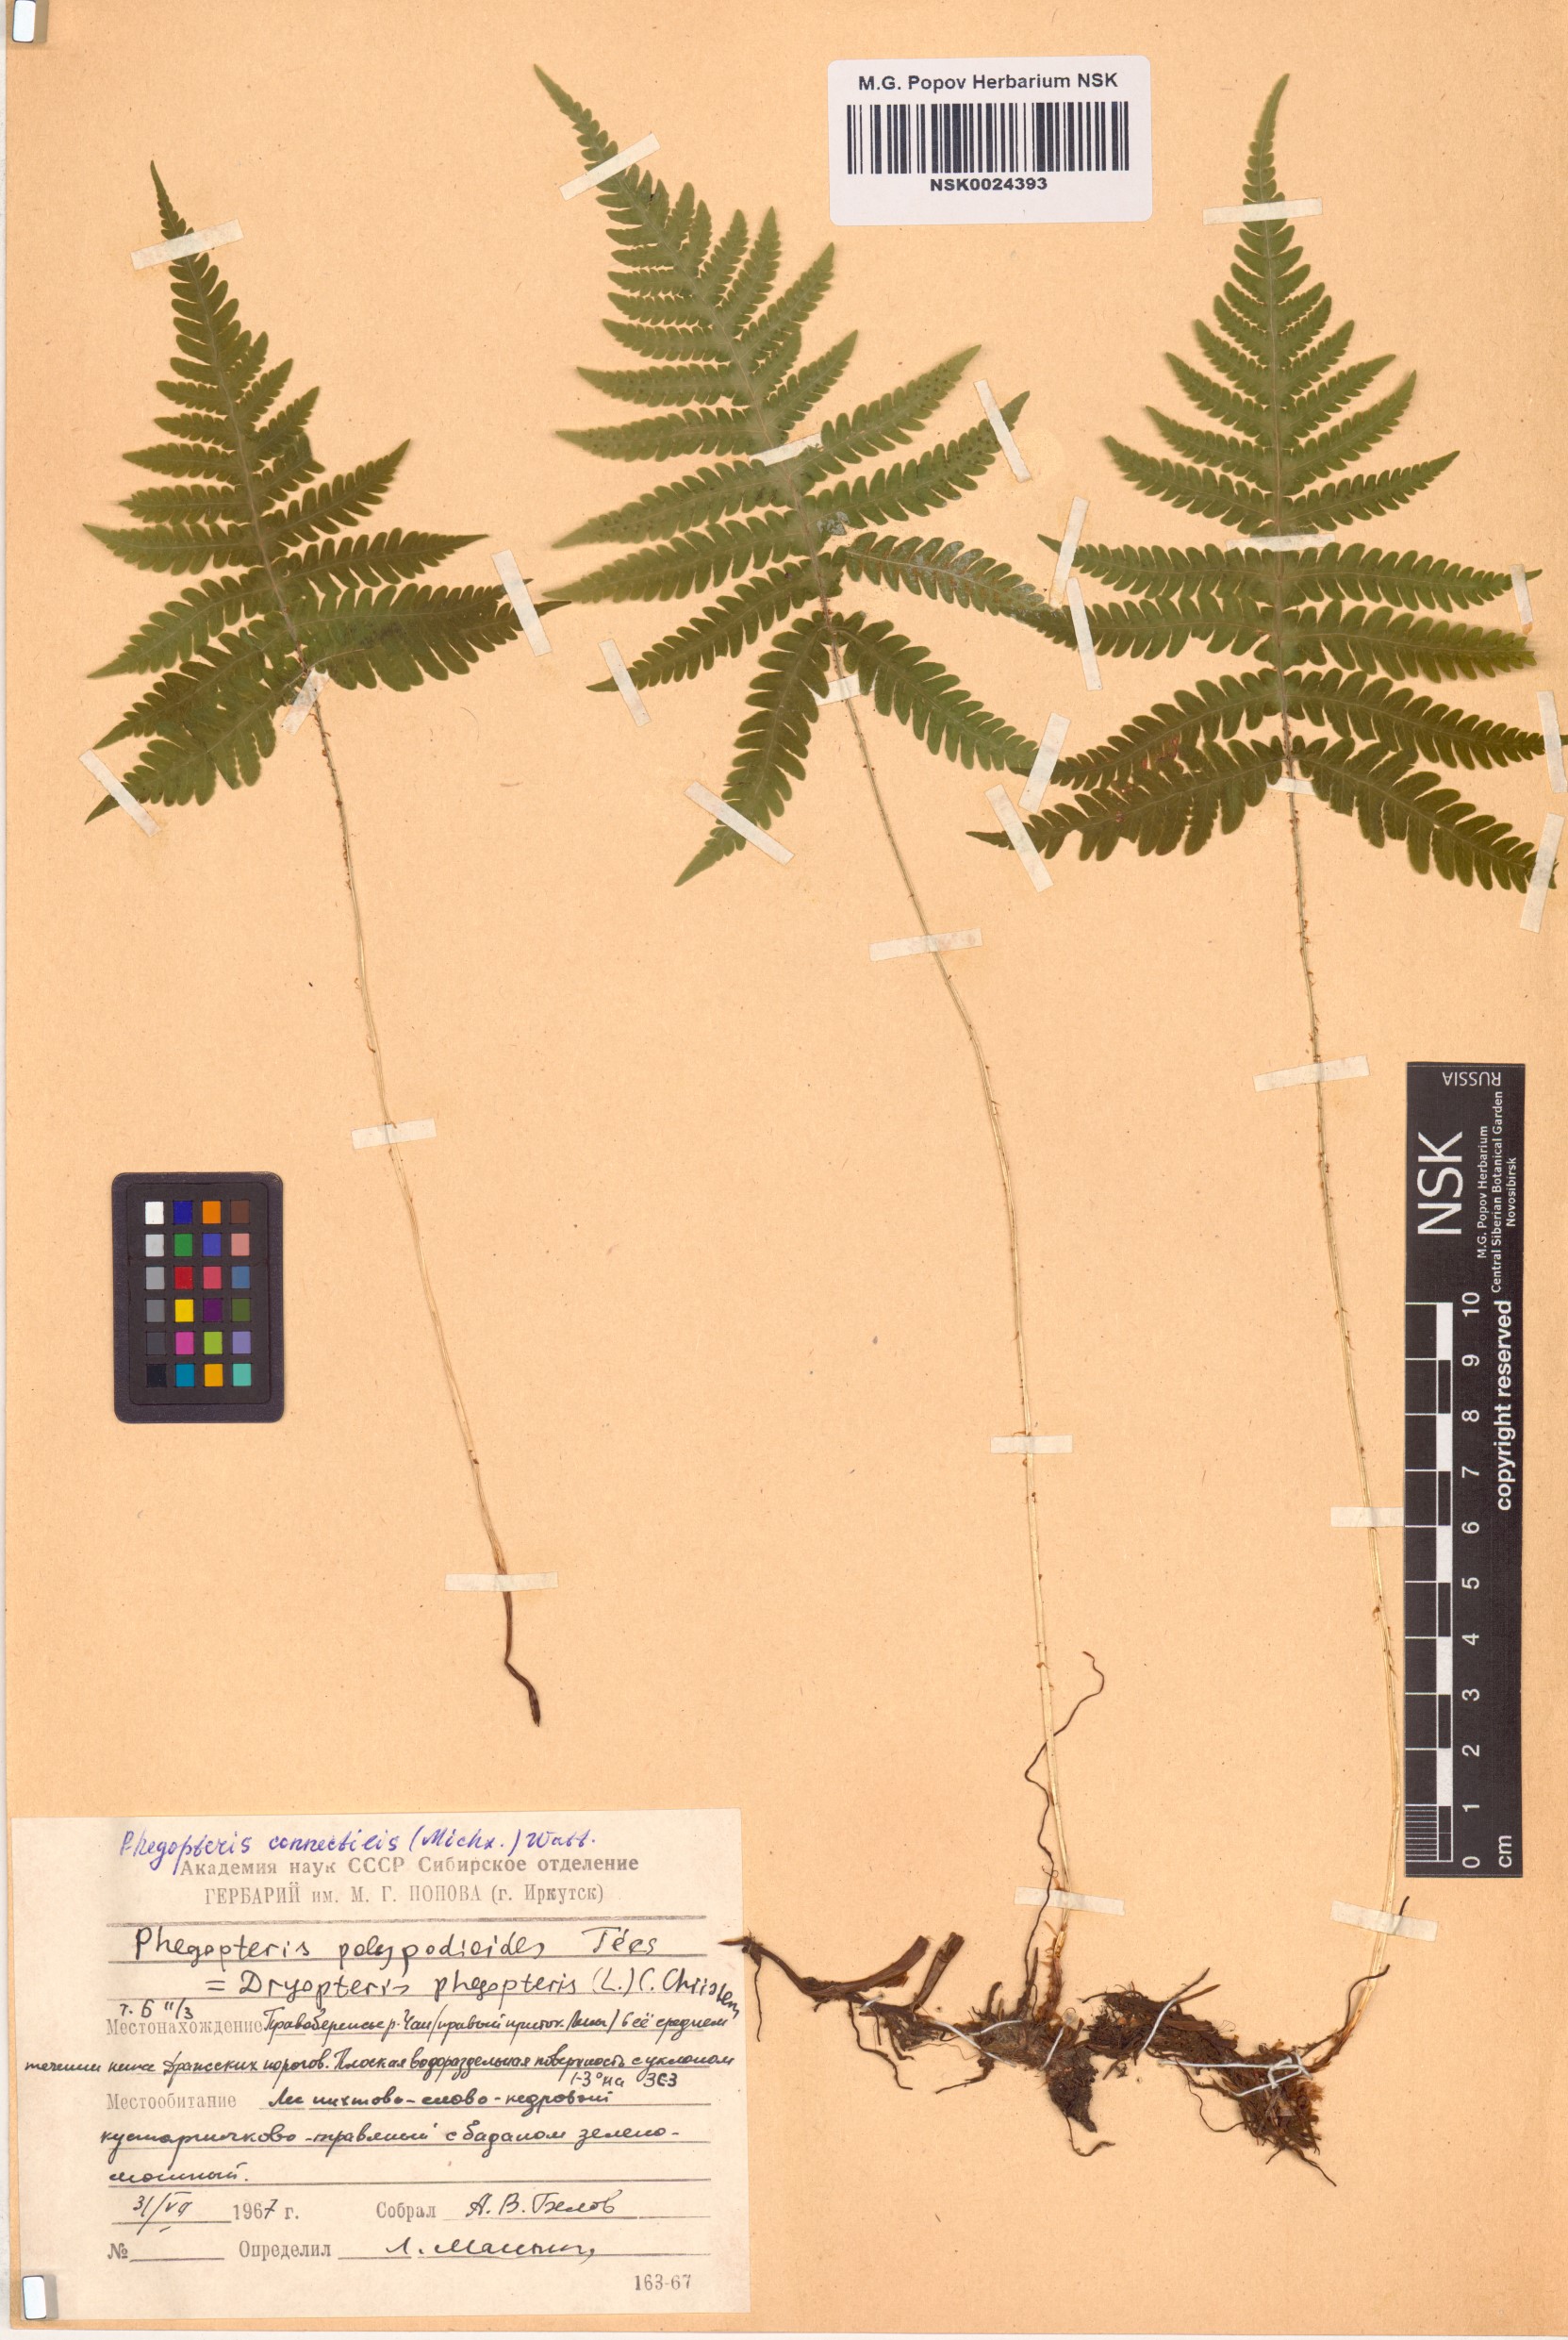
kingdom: Plantae
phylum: Tracheophyta
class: Polypodiopsida
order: Polypodiales
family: Thelypteridaceae
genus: Phegopteris
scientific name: Phegopteris connectilis
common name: Beech fern
